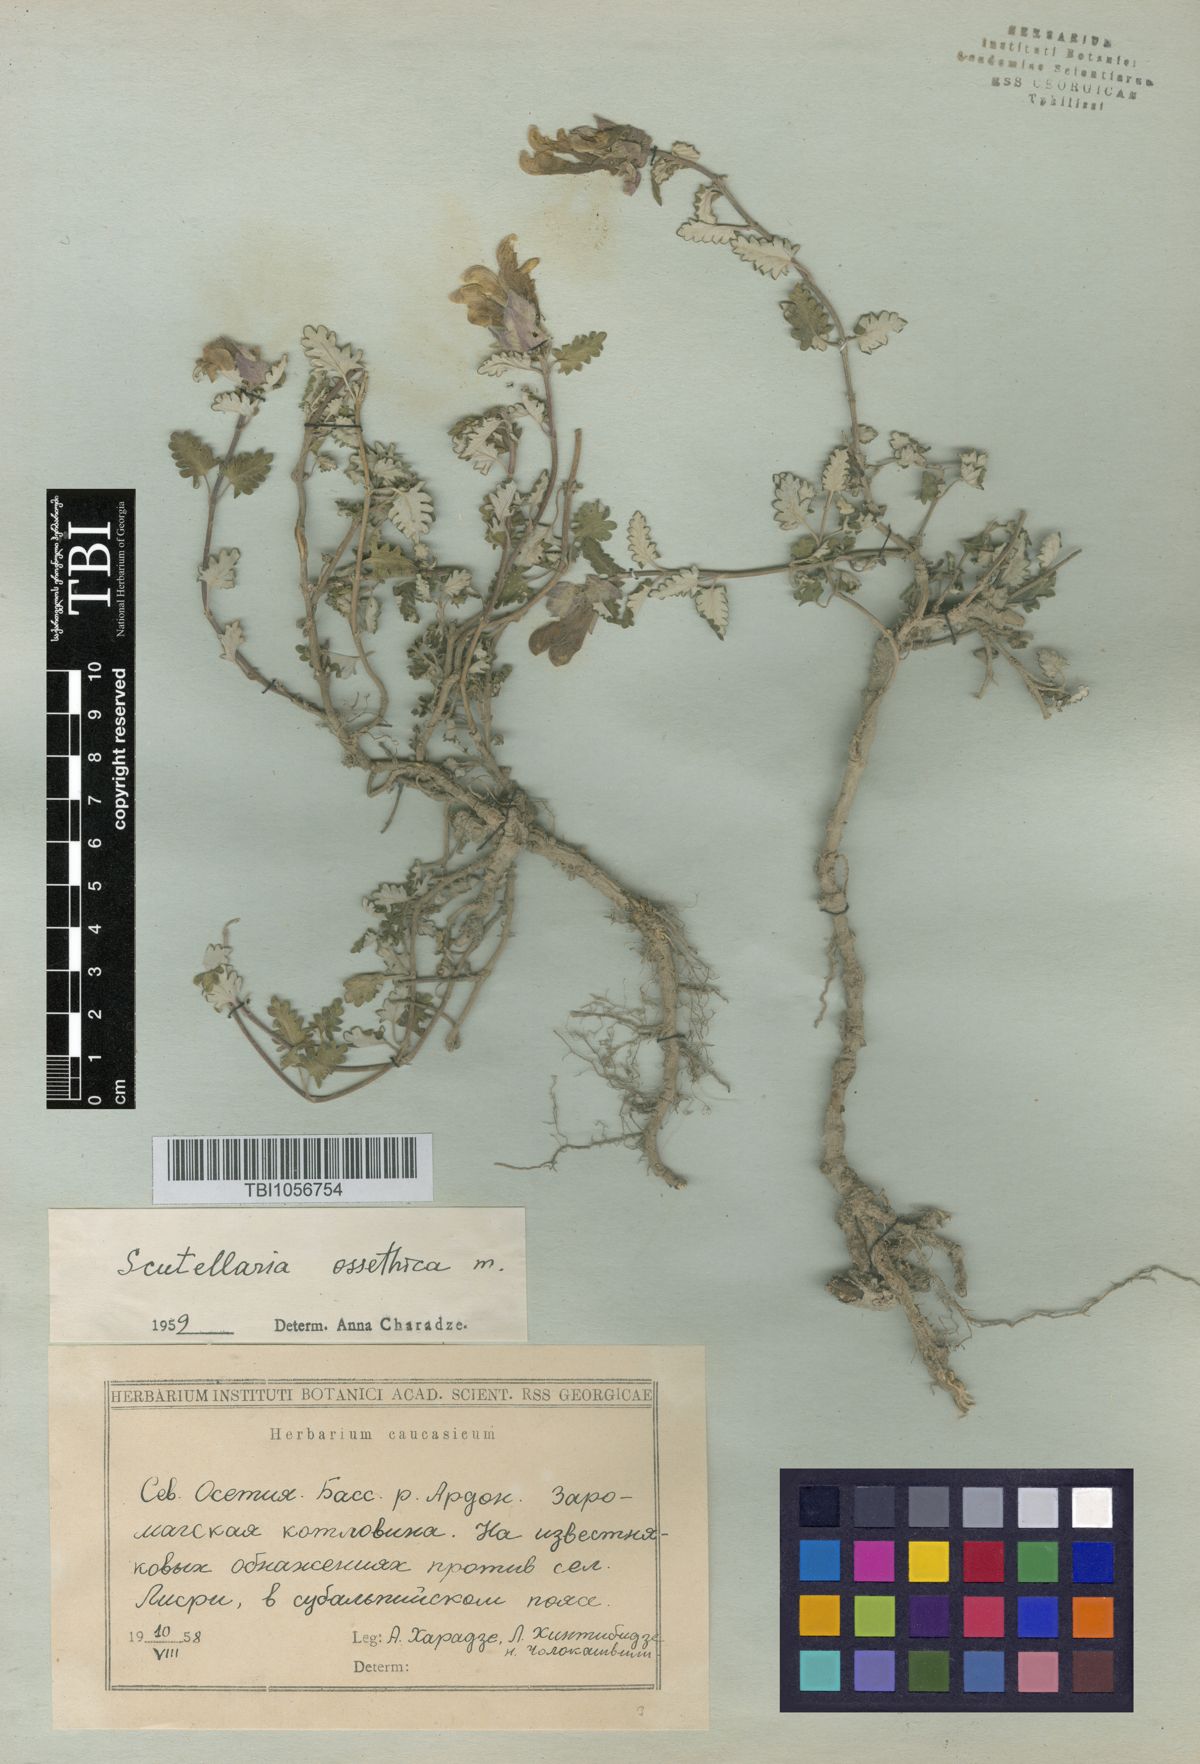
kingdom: Plantae
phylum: Tracheophyta
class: Magnoliopsida
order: Lamiales
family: Lamiaceae
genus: Scutellaria
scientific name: Scutellaria ossethica
